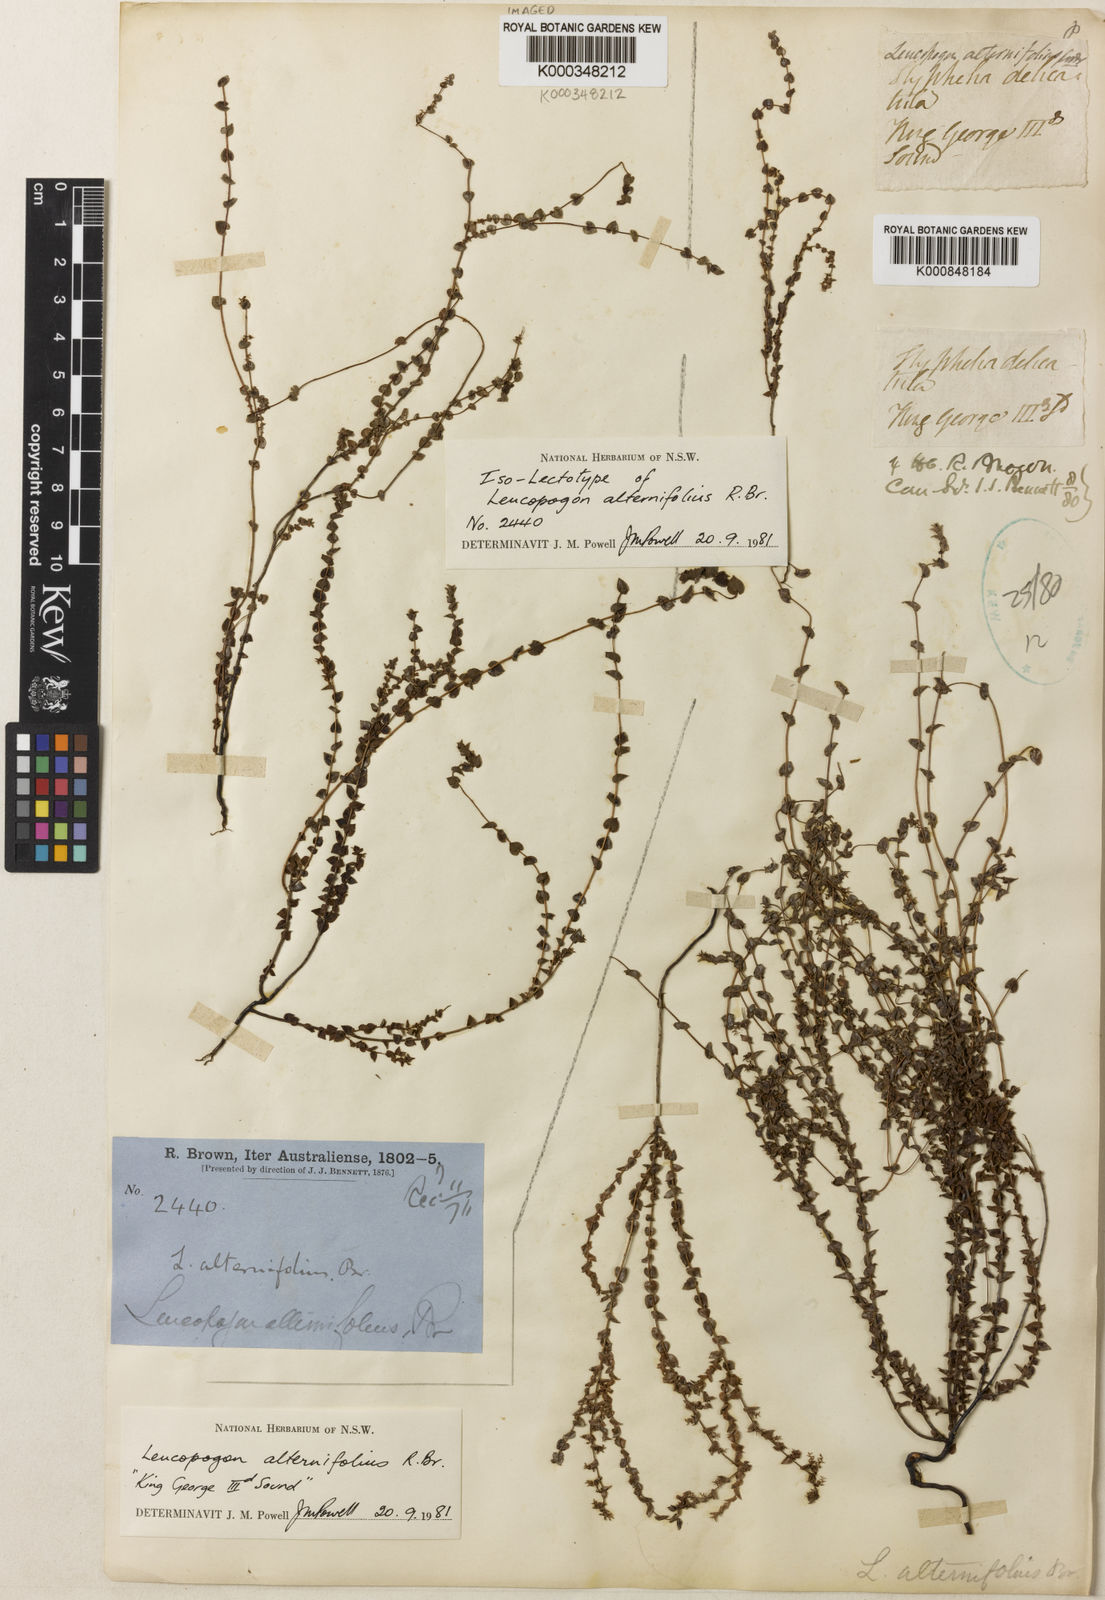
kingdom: Plantae
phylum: Tracheophyta
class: Magnoliopsida
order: Ericales
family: Ericaceae
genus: Leucopogon
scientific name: Leucopogon amplexicaulis
